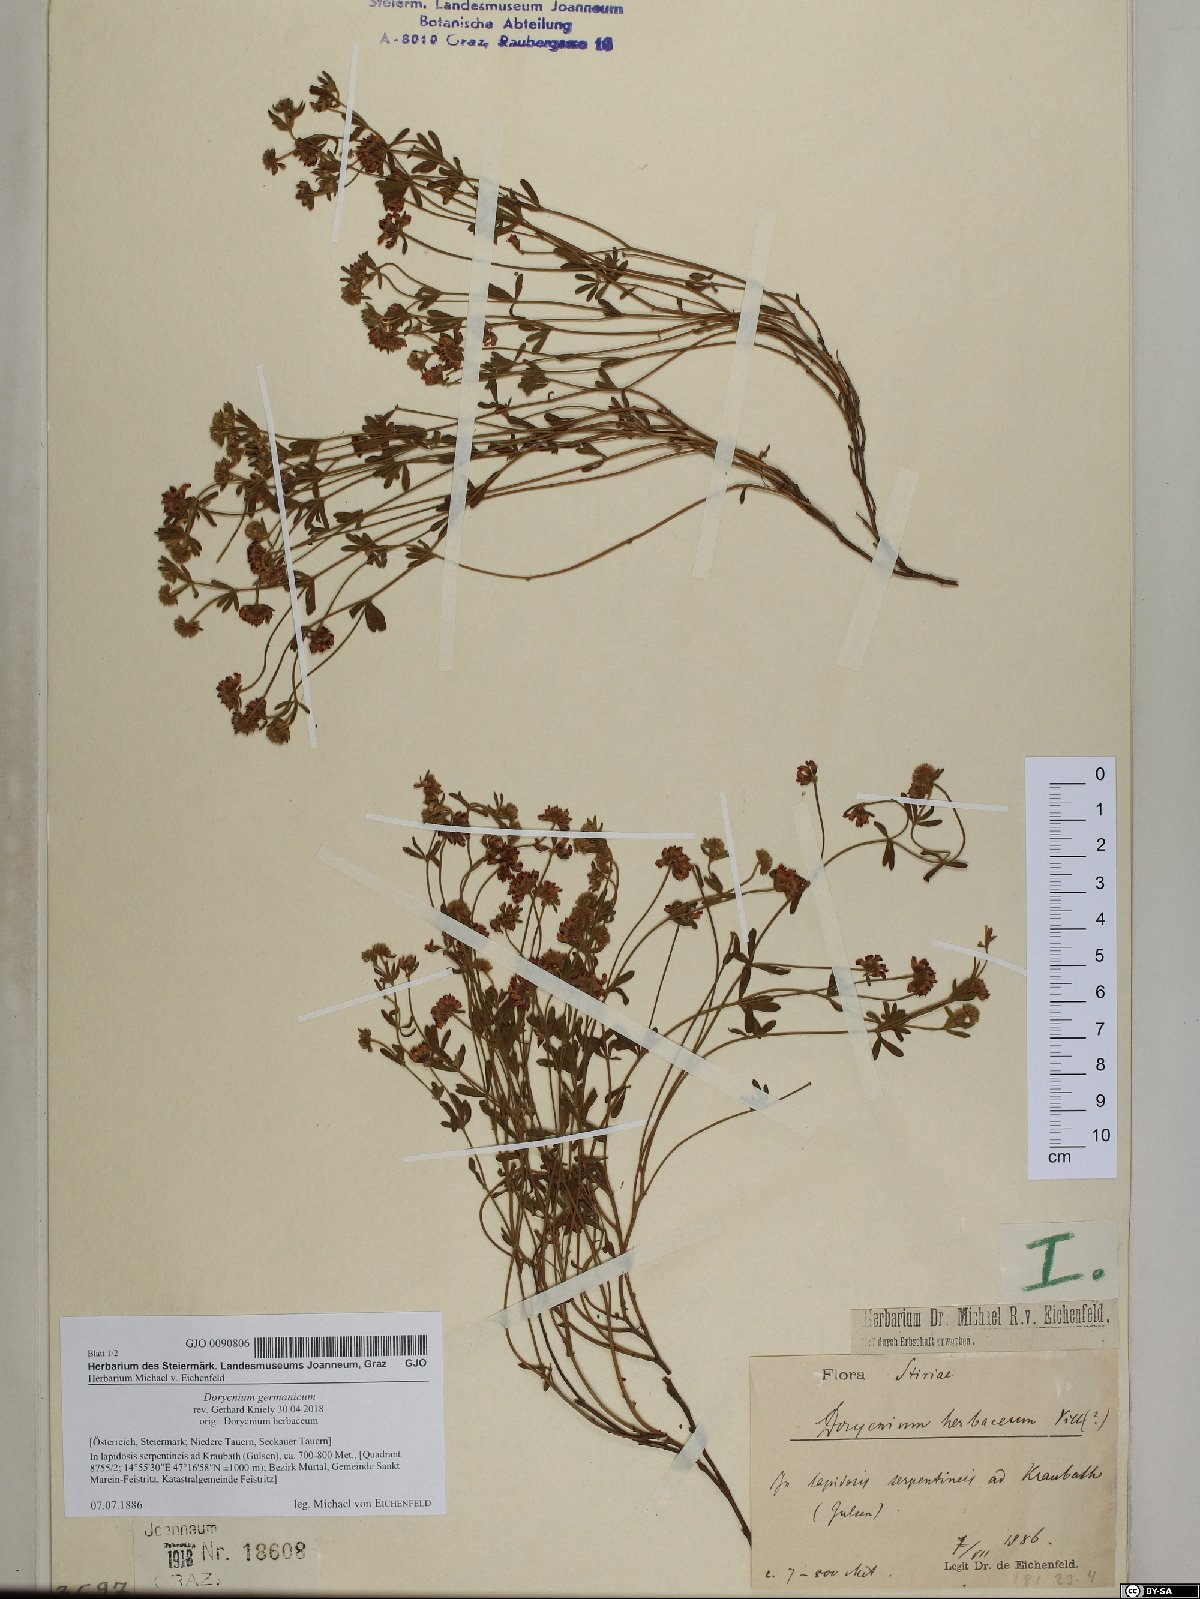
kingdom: Plantae
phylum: Tracheophyta
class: Magnoliopsida
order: Fabales
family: Fabaceae
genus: Lotus
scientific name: Lotus germanicus
